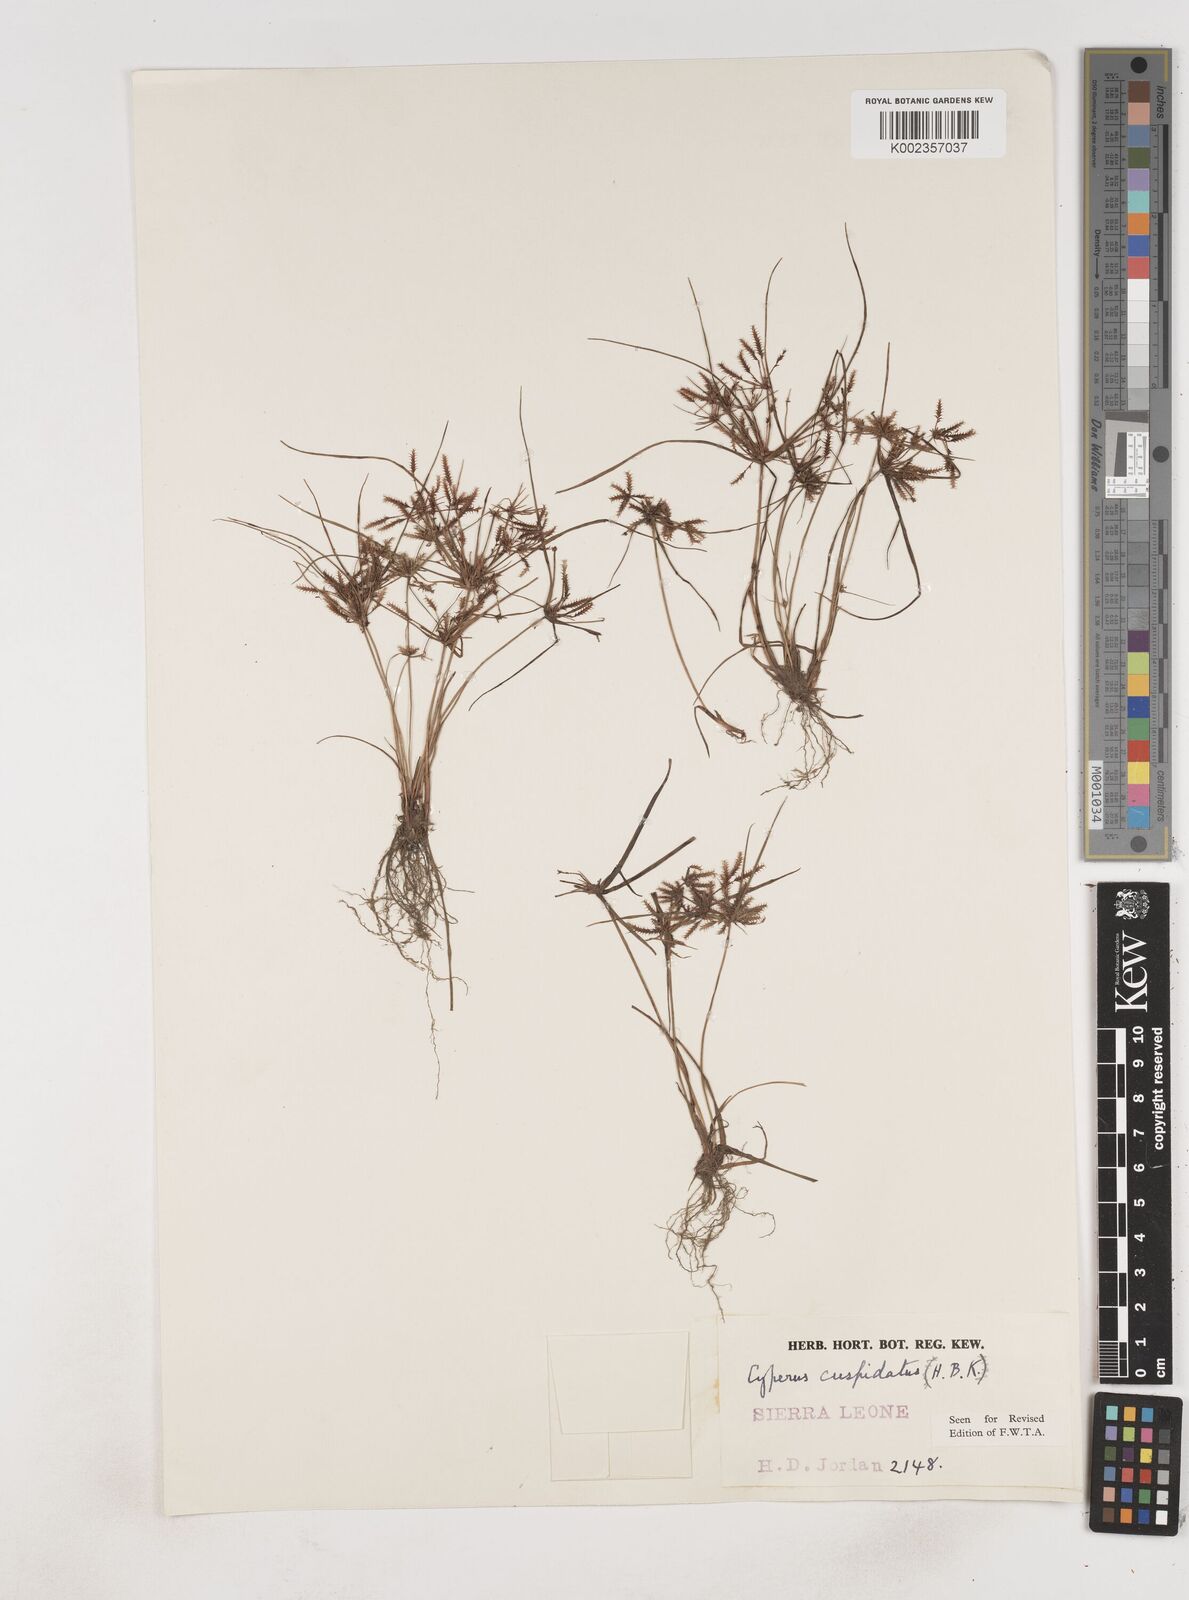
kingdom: Plantae
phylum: Tracheophyta
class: Liliopsida
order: Poales
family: Cyperaceae
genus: Cyperus
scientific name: Cyperus
